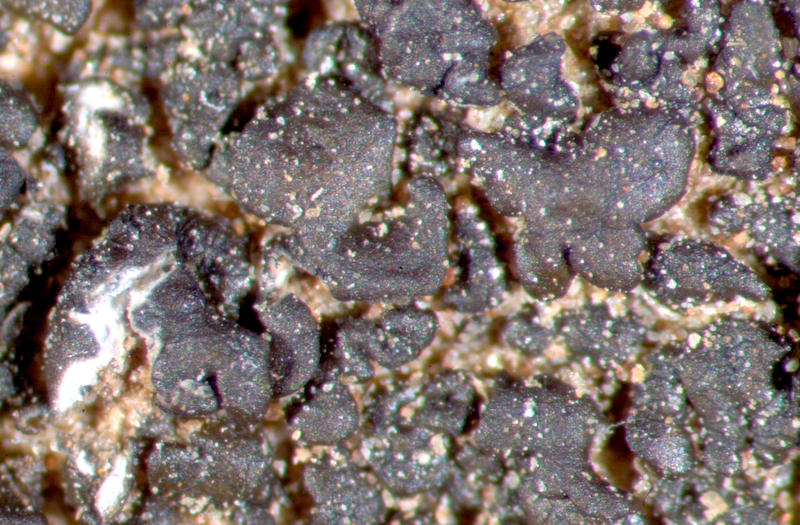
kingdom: Fungi
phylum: Ascomycota
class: Lecanoromycetes
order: Lecanorales
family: Parmeliaceae
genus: Neofuscelia
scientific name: Neofuscelia
